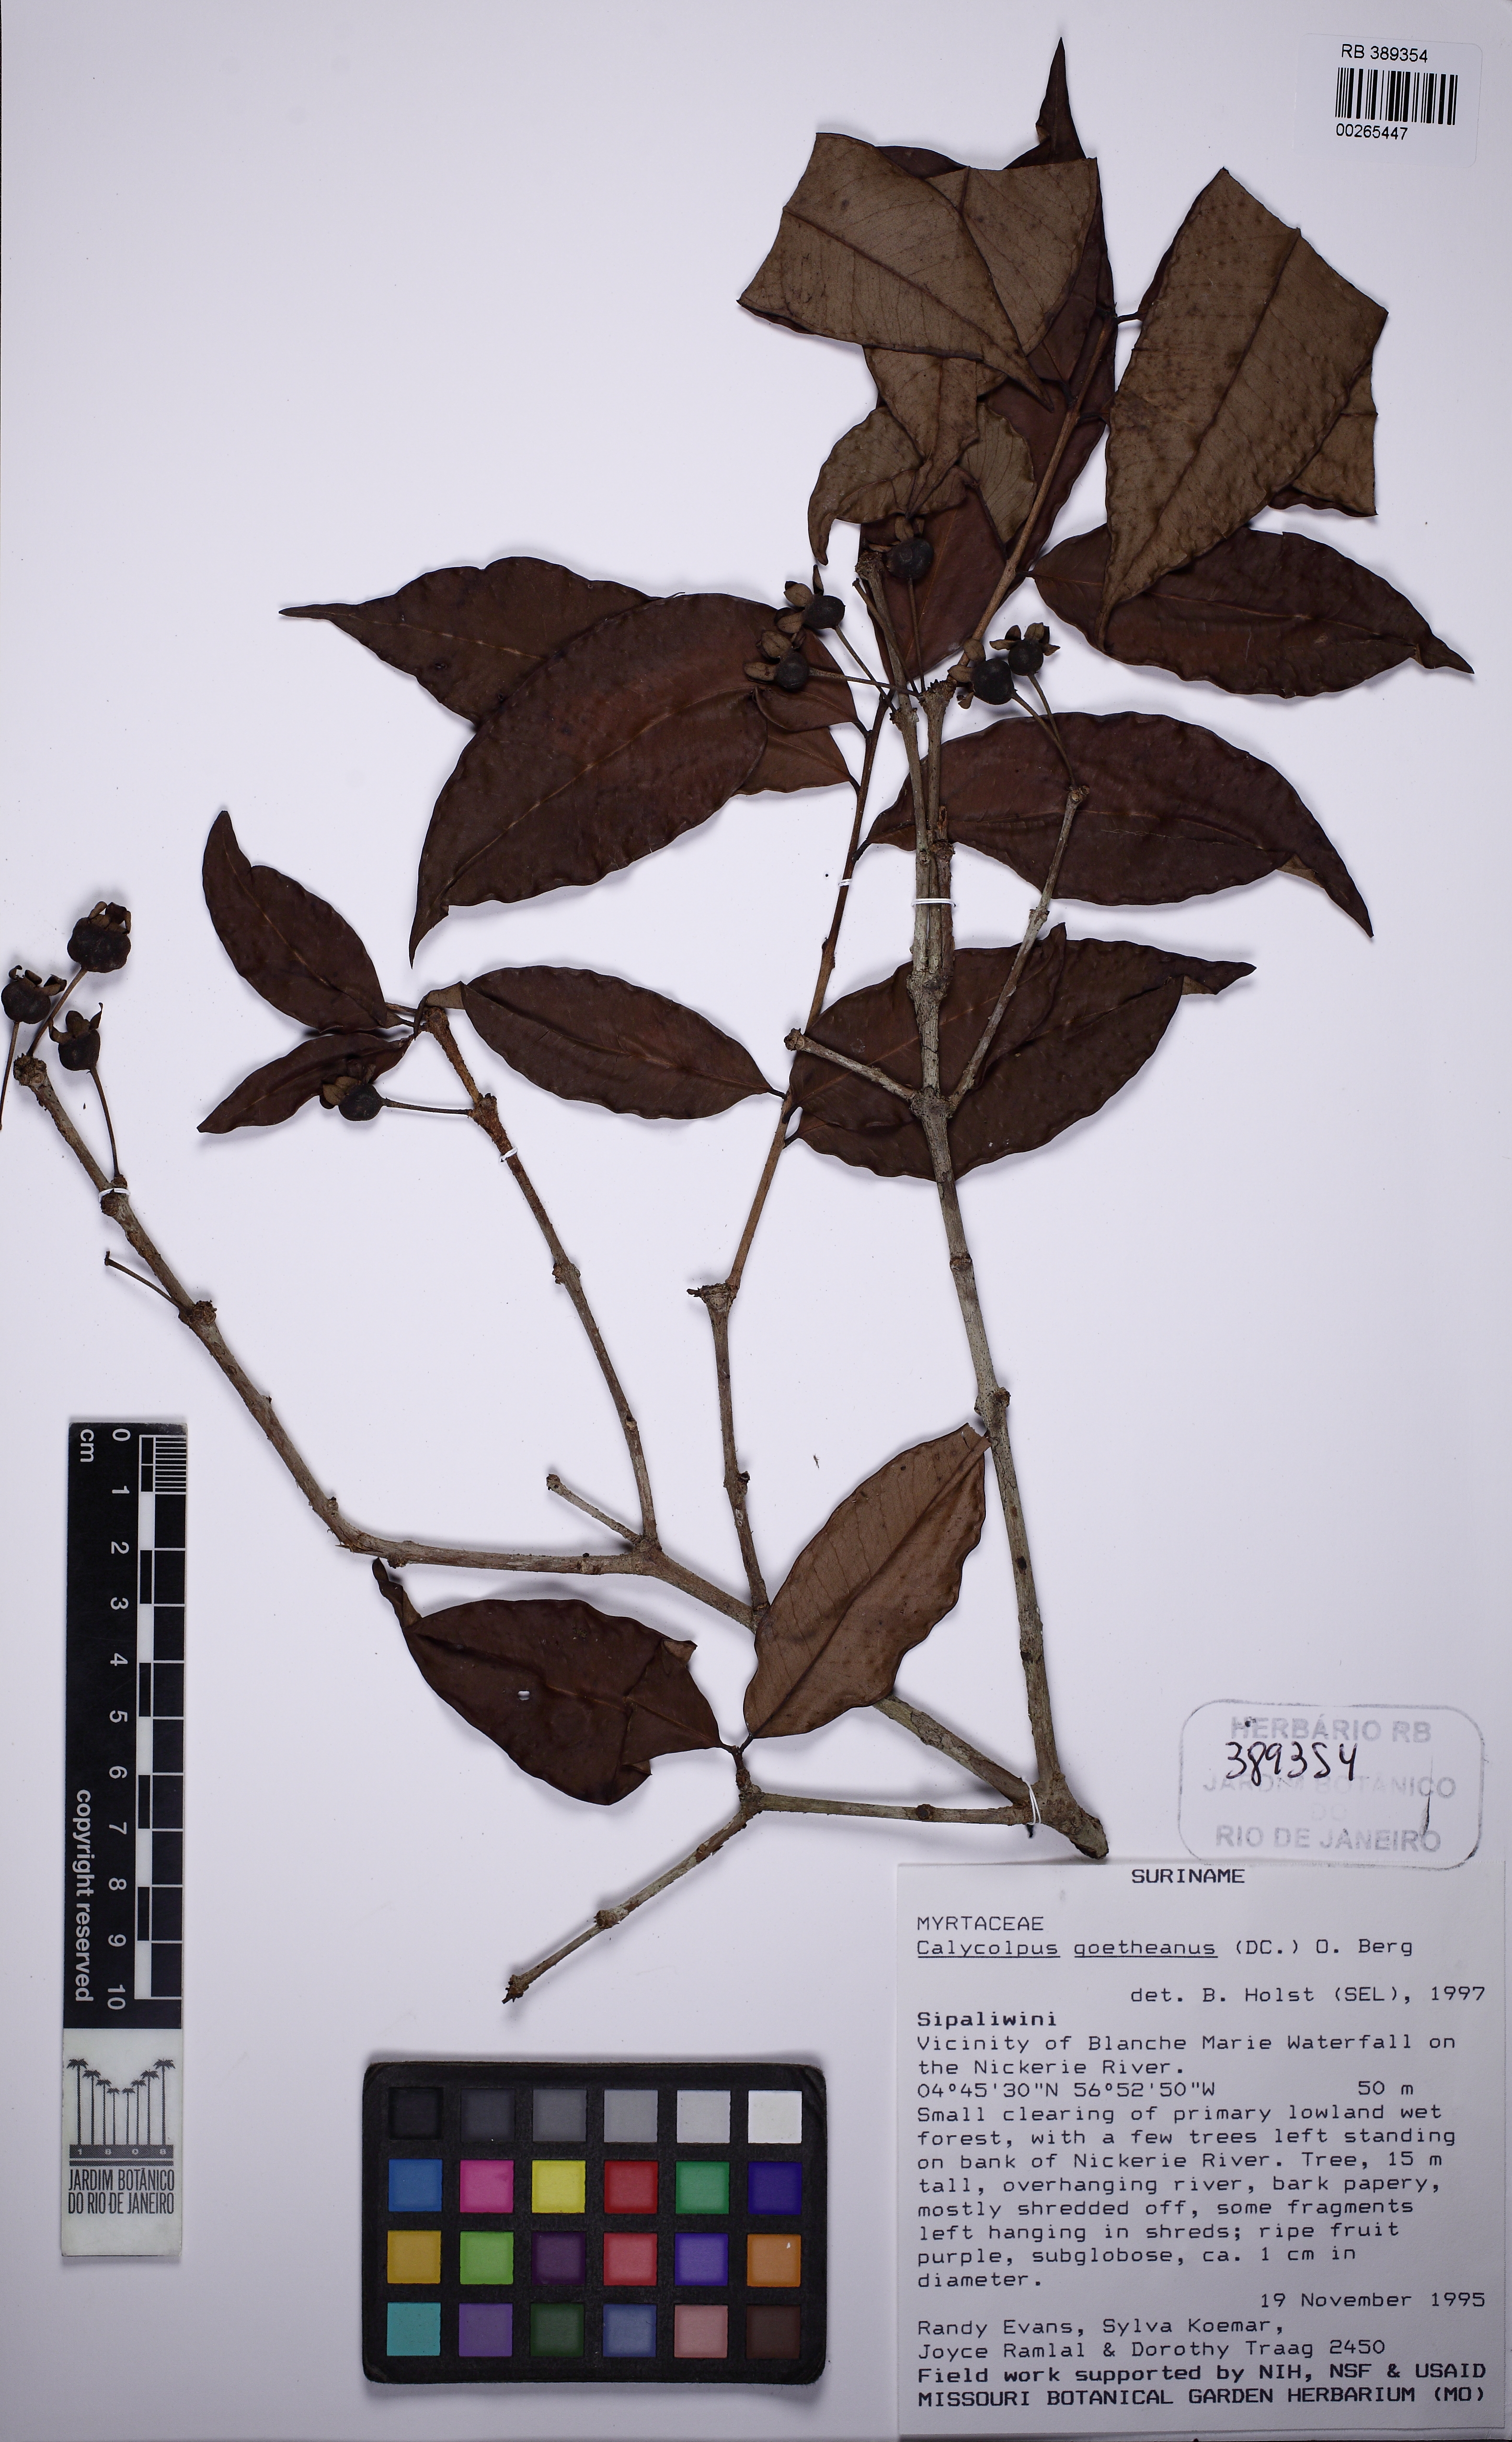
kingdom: Plantae
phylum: Tracheophyta
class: Magnoliopsida
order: Myrtales
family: Myrtaceae
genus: Calycolpus
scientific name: Calycolpus goetheanus
